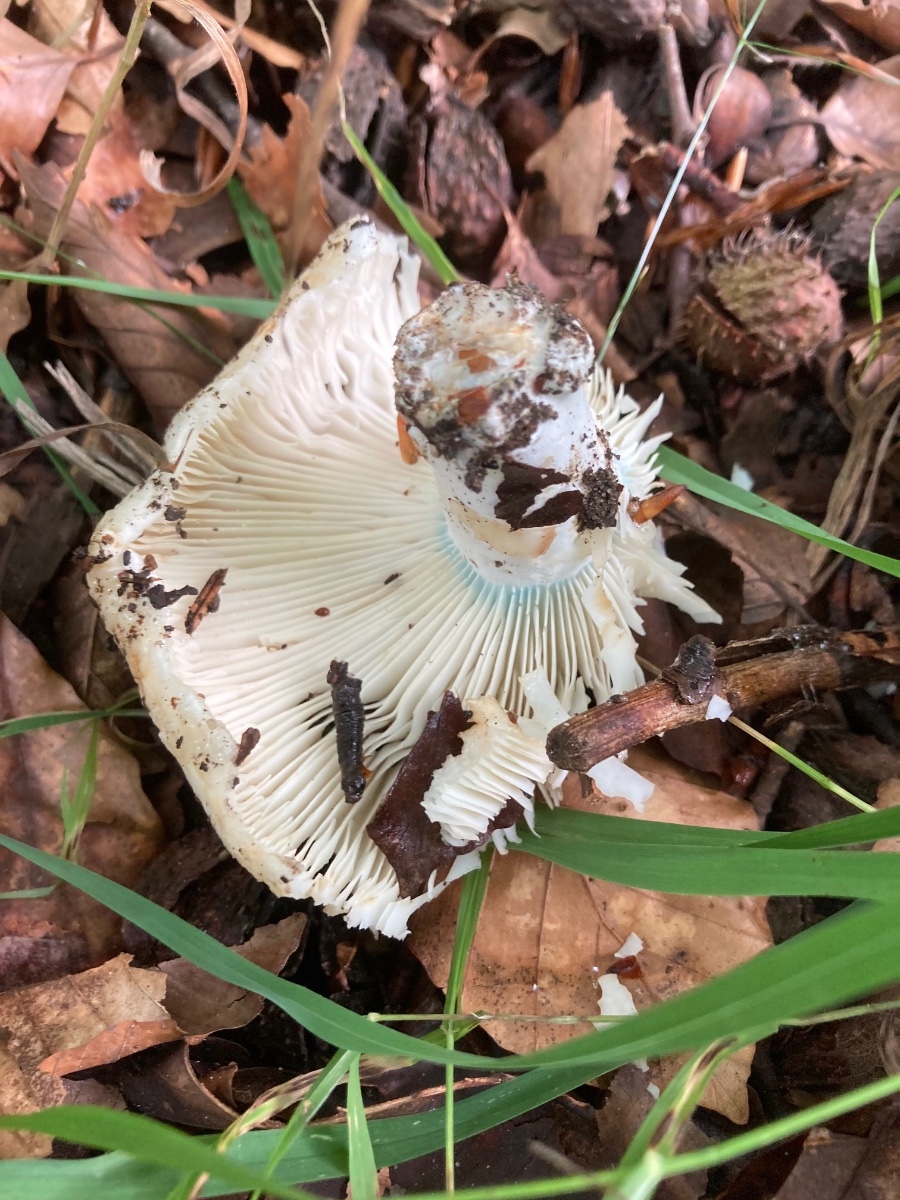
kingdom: Fungi
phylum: Basidiomycota
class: Agaricomycetes
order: Russulales
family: Russulaceae
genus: Russula
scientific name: Russula chloroides
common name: grønhalset tragt-skørhat
